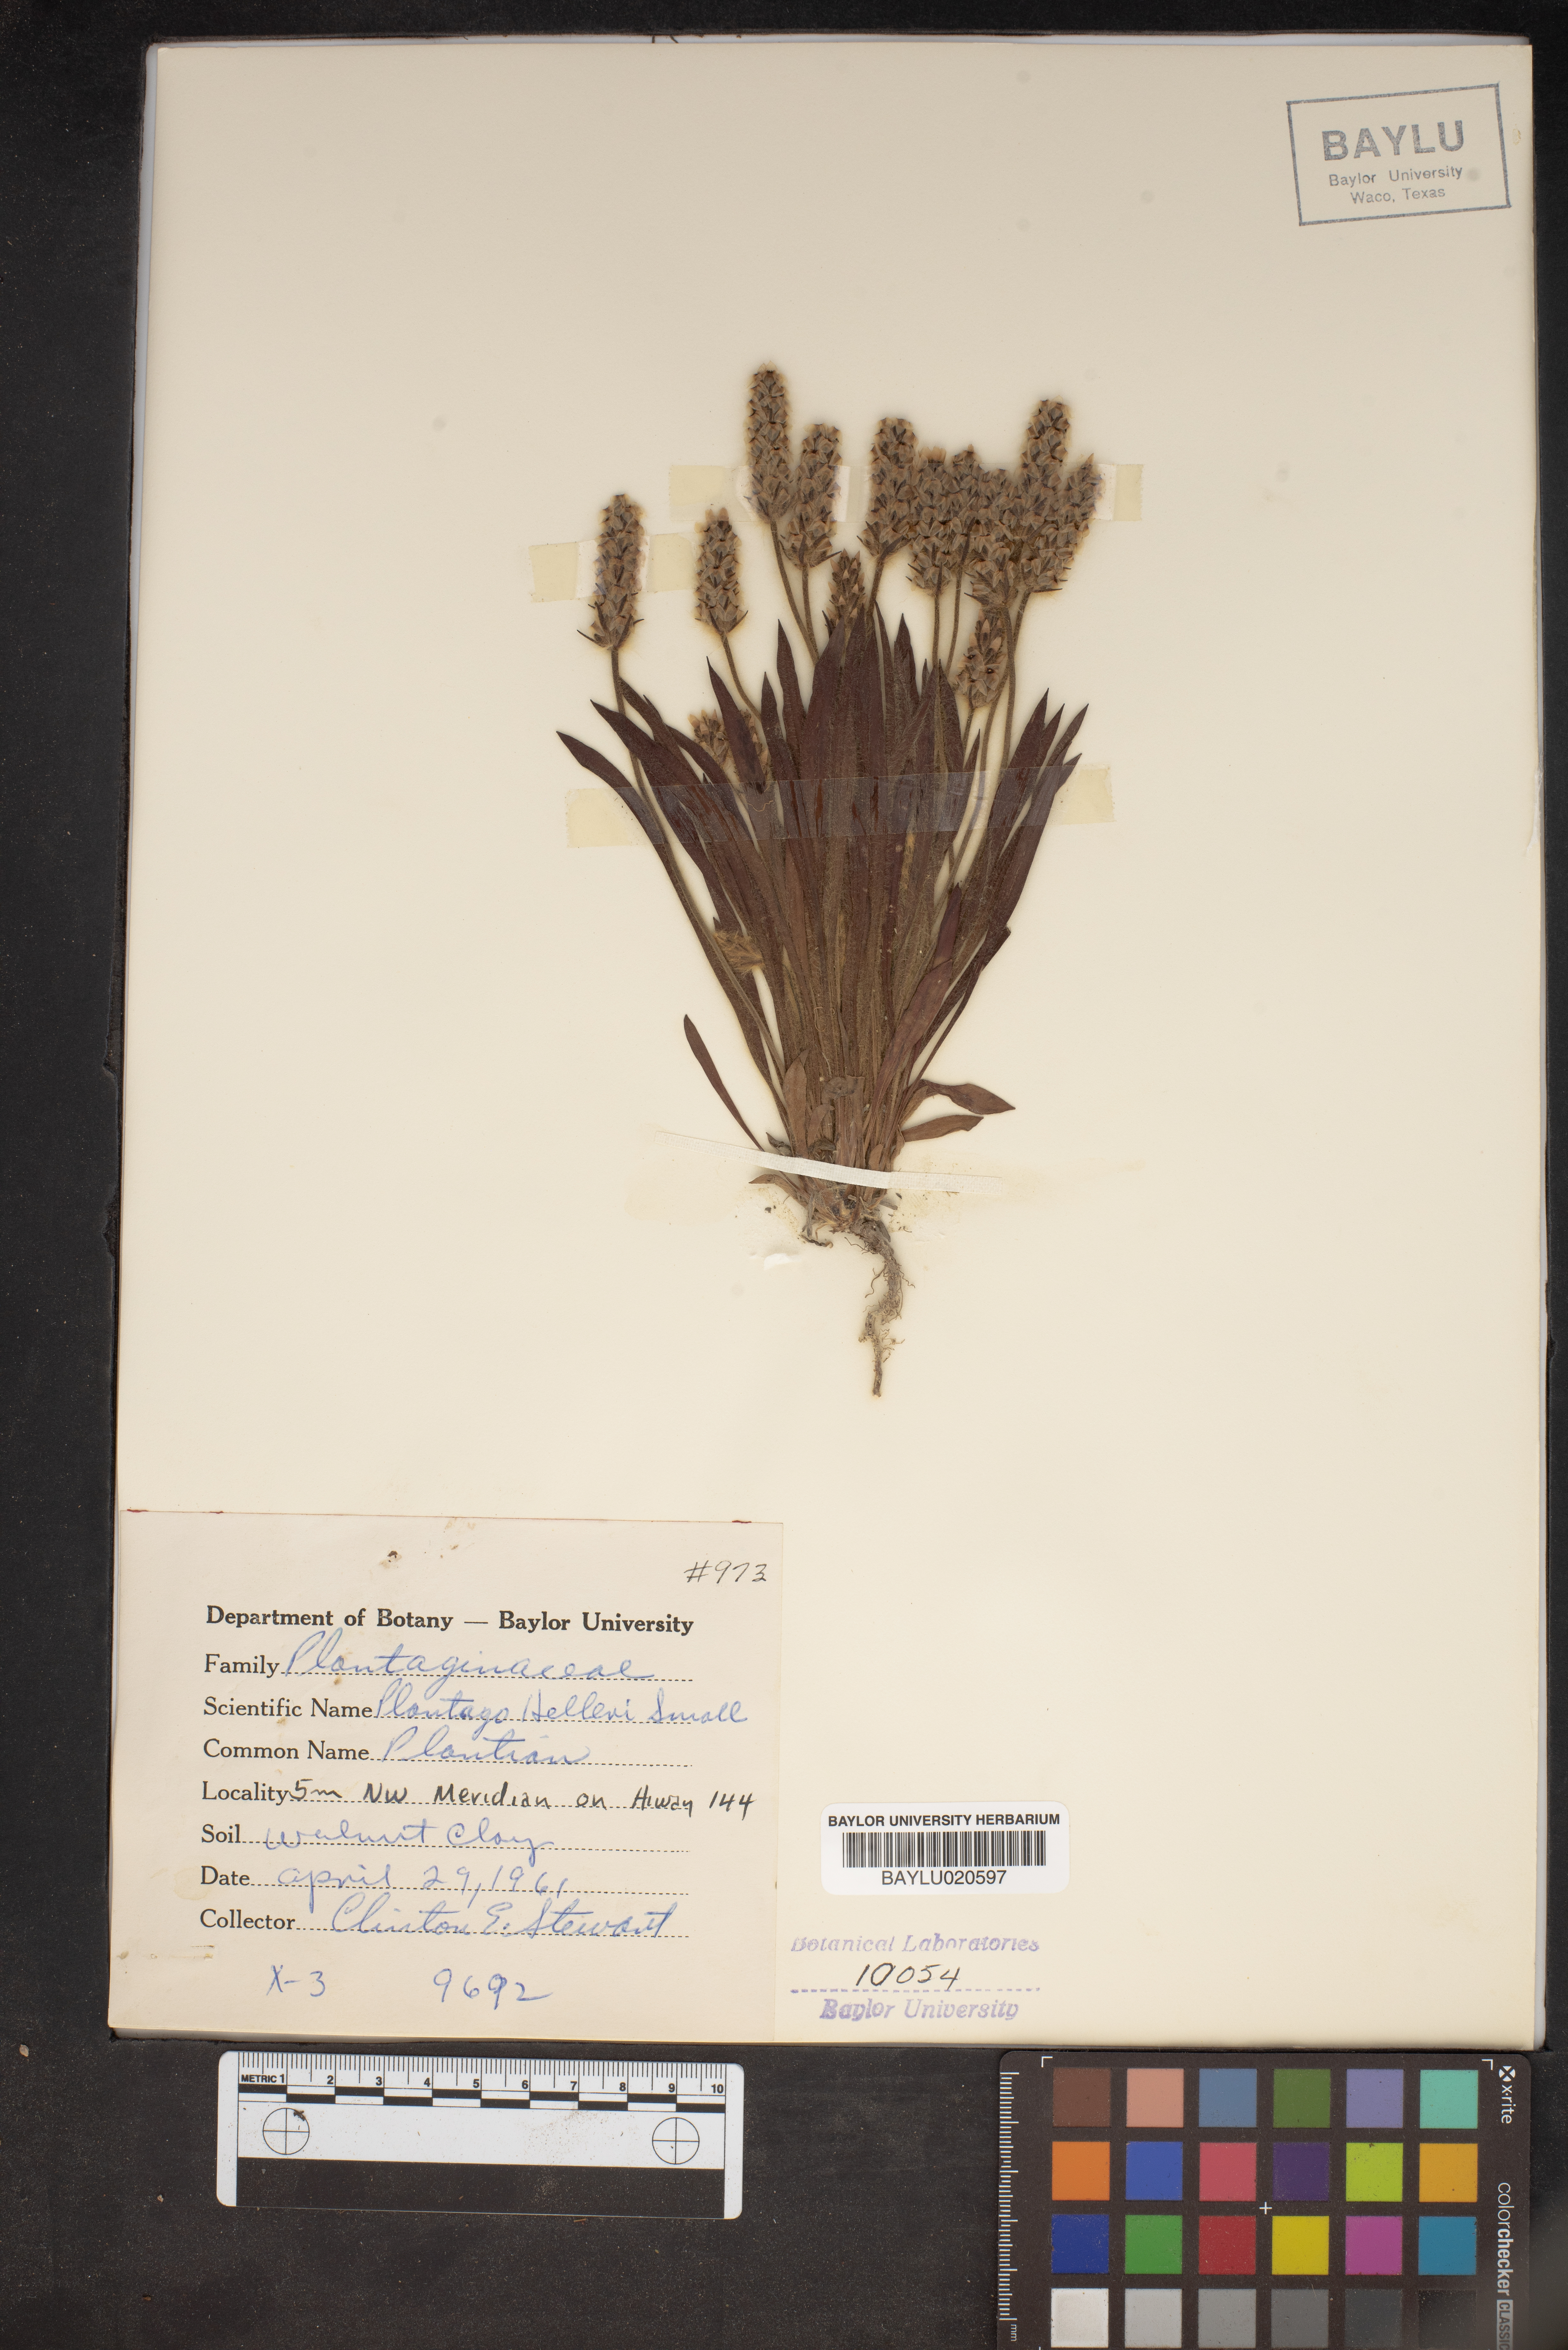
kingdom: Plantae
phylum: Tracheophyta
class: Magnoliopsida
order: Lamiales
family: Plantaginaceae
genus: Plantago
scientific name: Plantago helleri
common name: Heller's plantain
